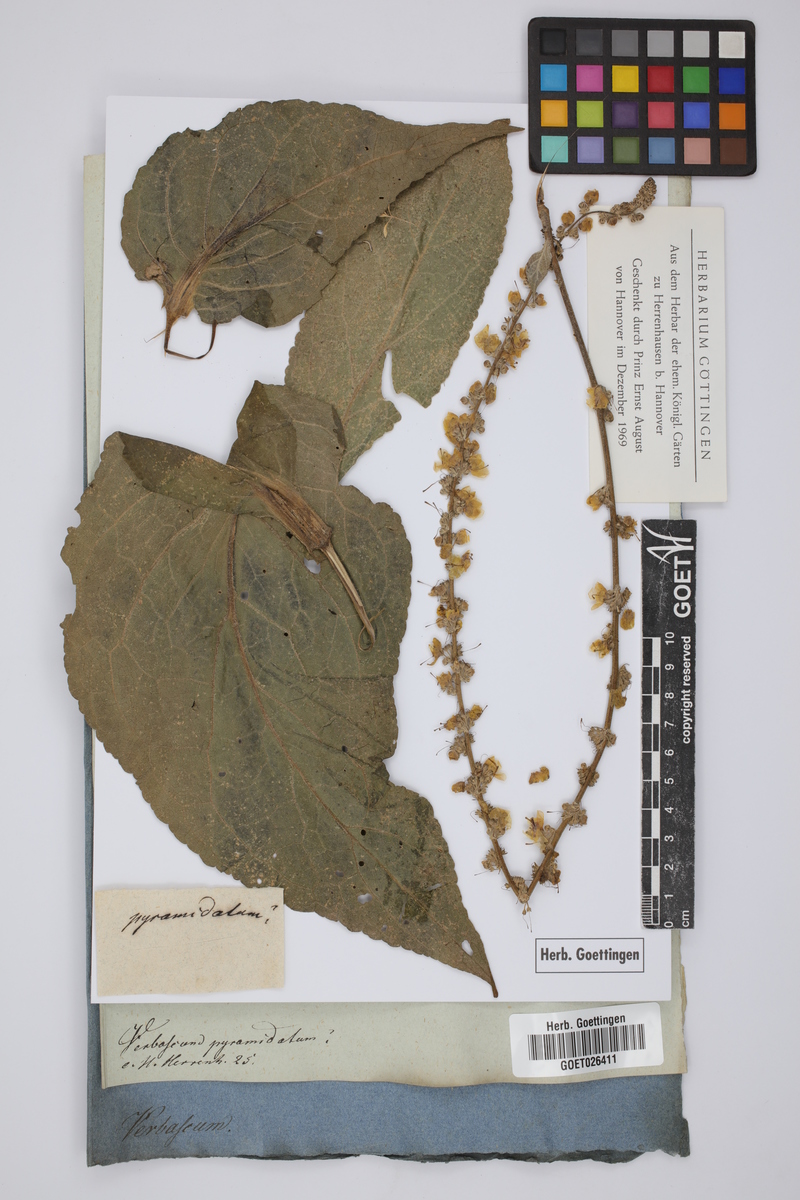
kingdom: Plantae
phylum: Tracheophyta
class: Magnoliopsida
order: Lamiales
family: Scrophulariaceae
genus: Verbascum
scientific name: Verbascum pyramidatum
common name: Caucasian mullein
